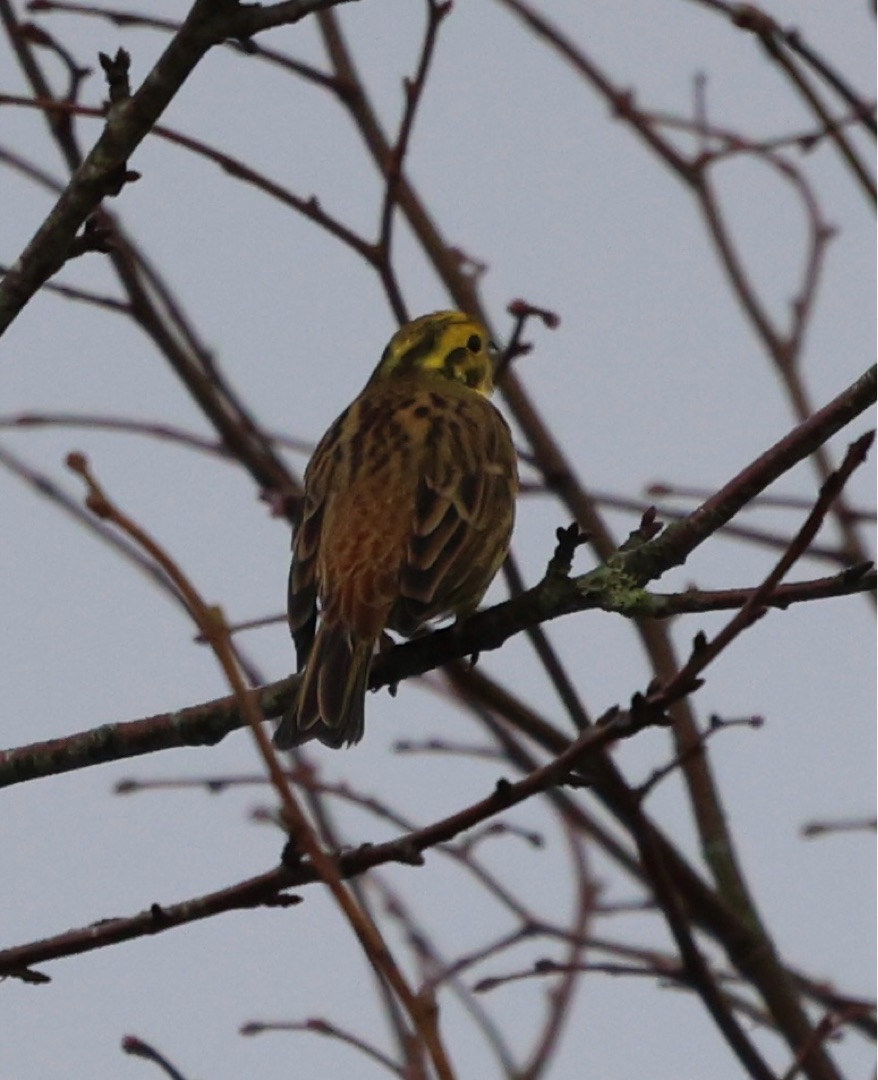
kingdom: Animalia
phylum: Chordata
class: Aves
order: Passeriformes
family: Emberizidae
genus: Emberiza
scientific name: Emberiza citrinella
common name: Gulspurv
